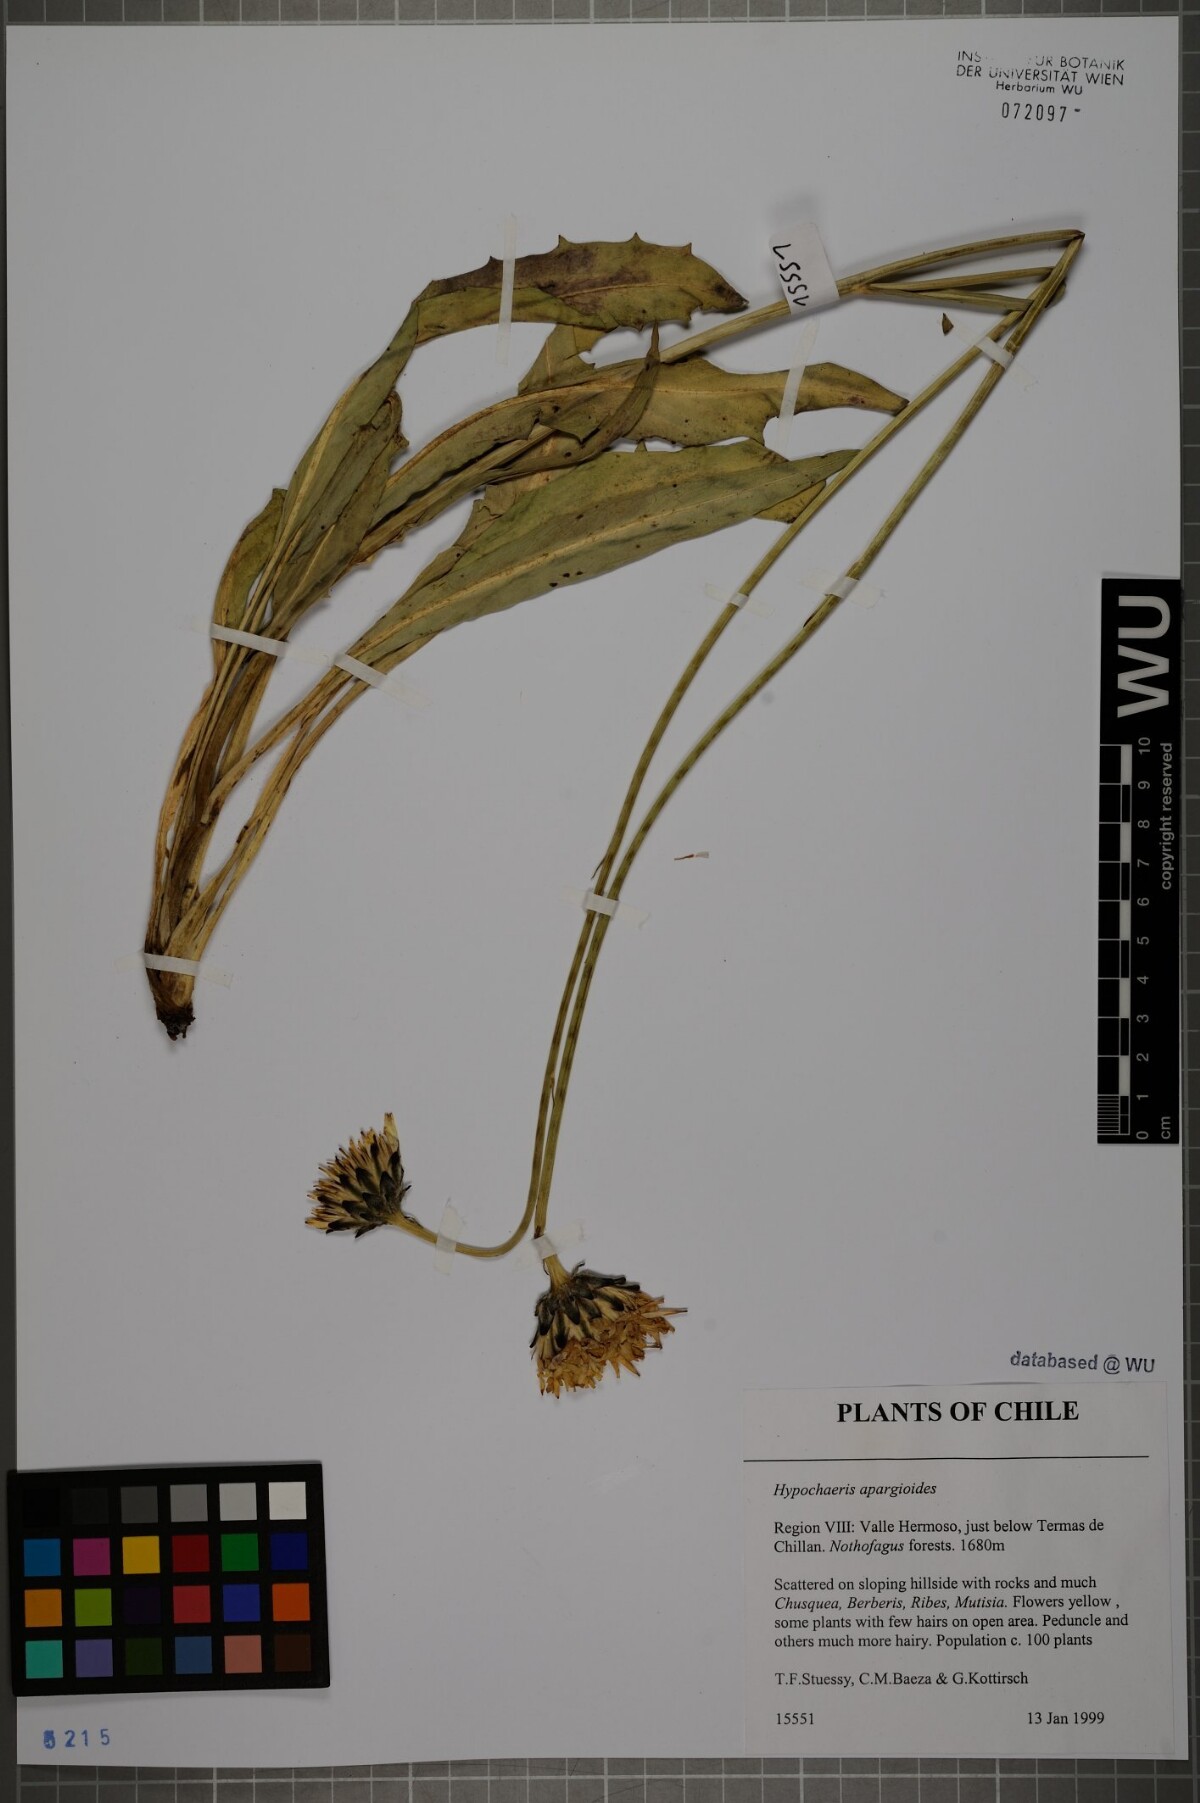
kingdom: Plantae
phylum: Tracheophyta
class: Magnoliopsida
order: Asterales
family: Asteraceae
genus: Hypochaeris
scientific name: Hypochaeris apargioides
